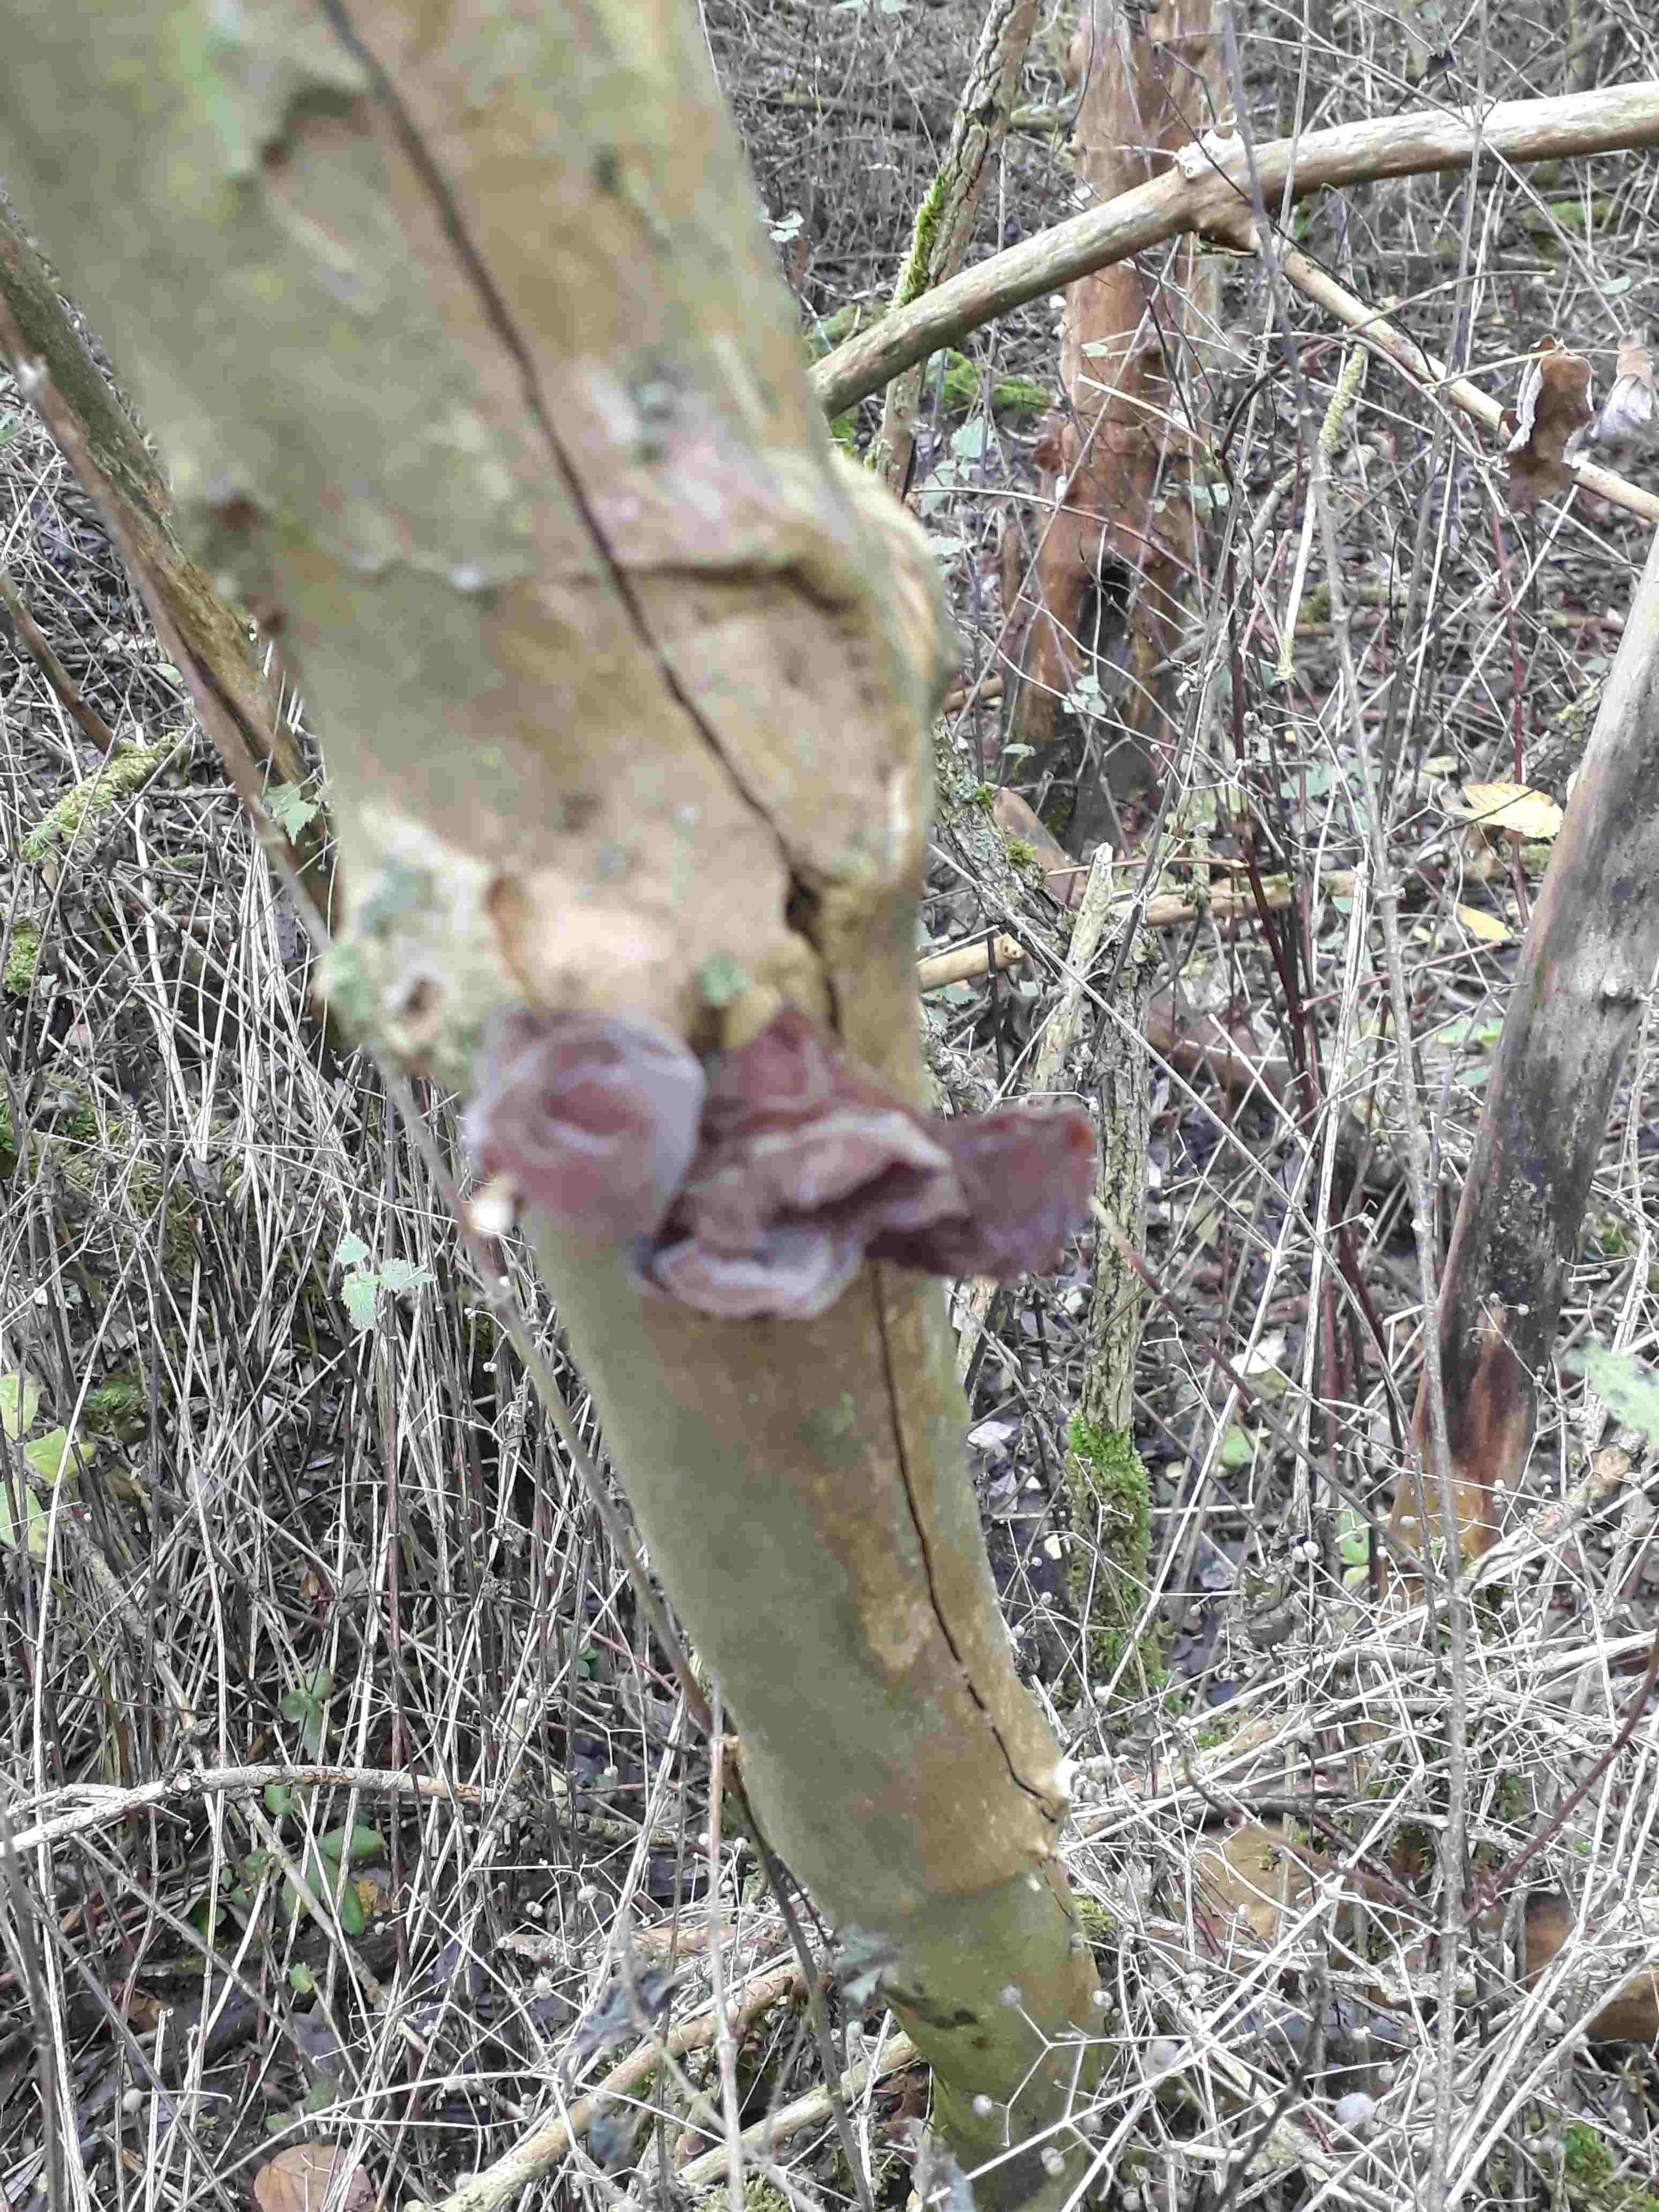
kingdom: Fungi
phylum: Basidiomycota
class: Agaricomycetes
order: Auriculariales
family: Auriculariaceae
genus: Auricularia
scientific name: Auricularia auricula-judae
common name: almindelig judasøre
